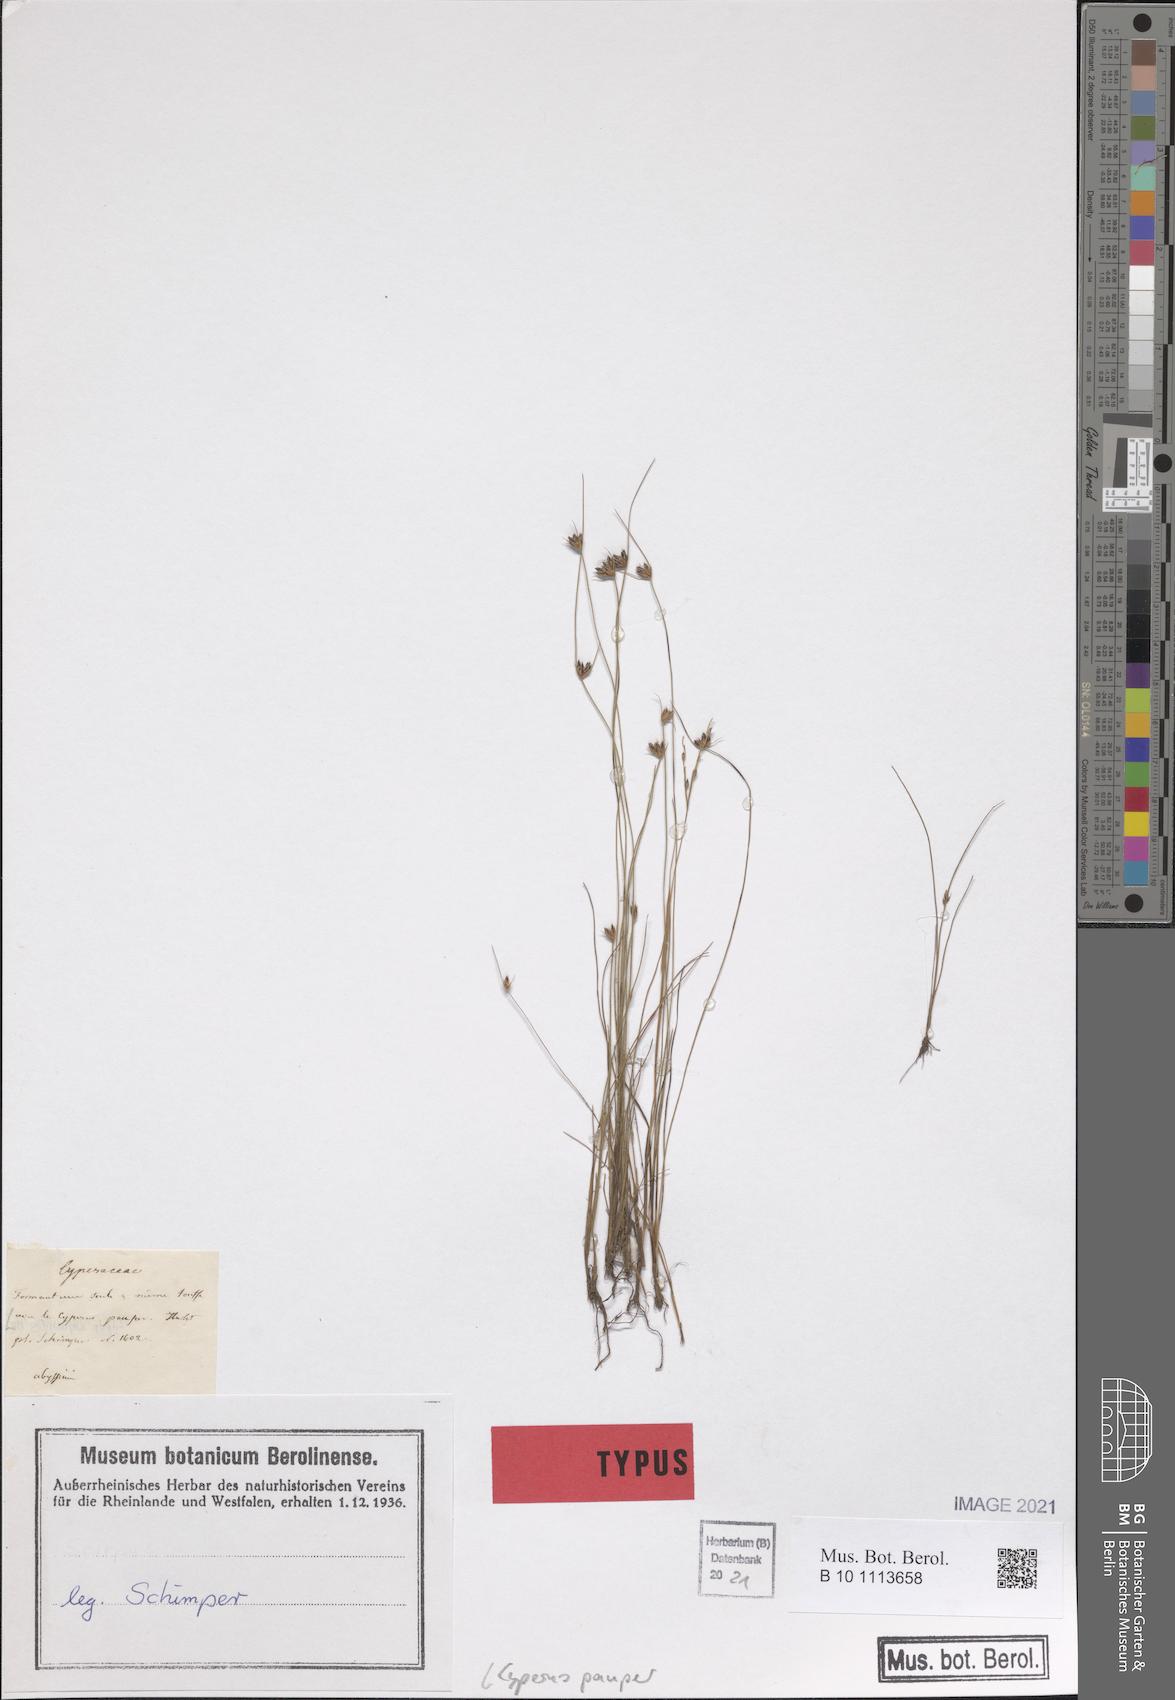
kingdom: Plantae
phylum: Tracheophyta
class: Liliopsida
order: Poales
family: Cyperaceae
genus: Cyperus
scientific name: Cyperus pauper
